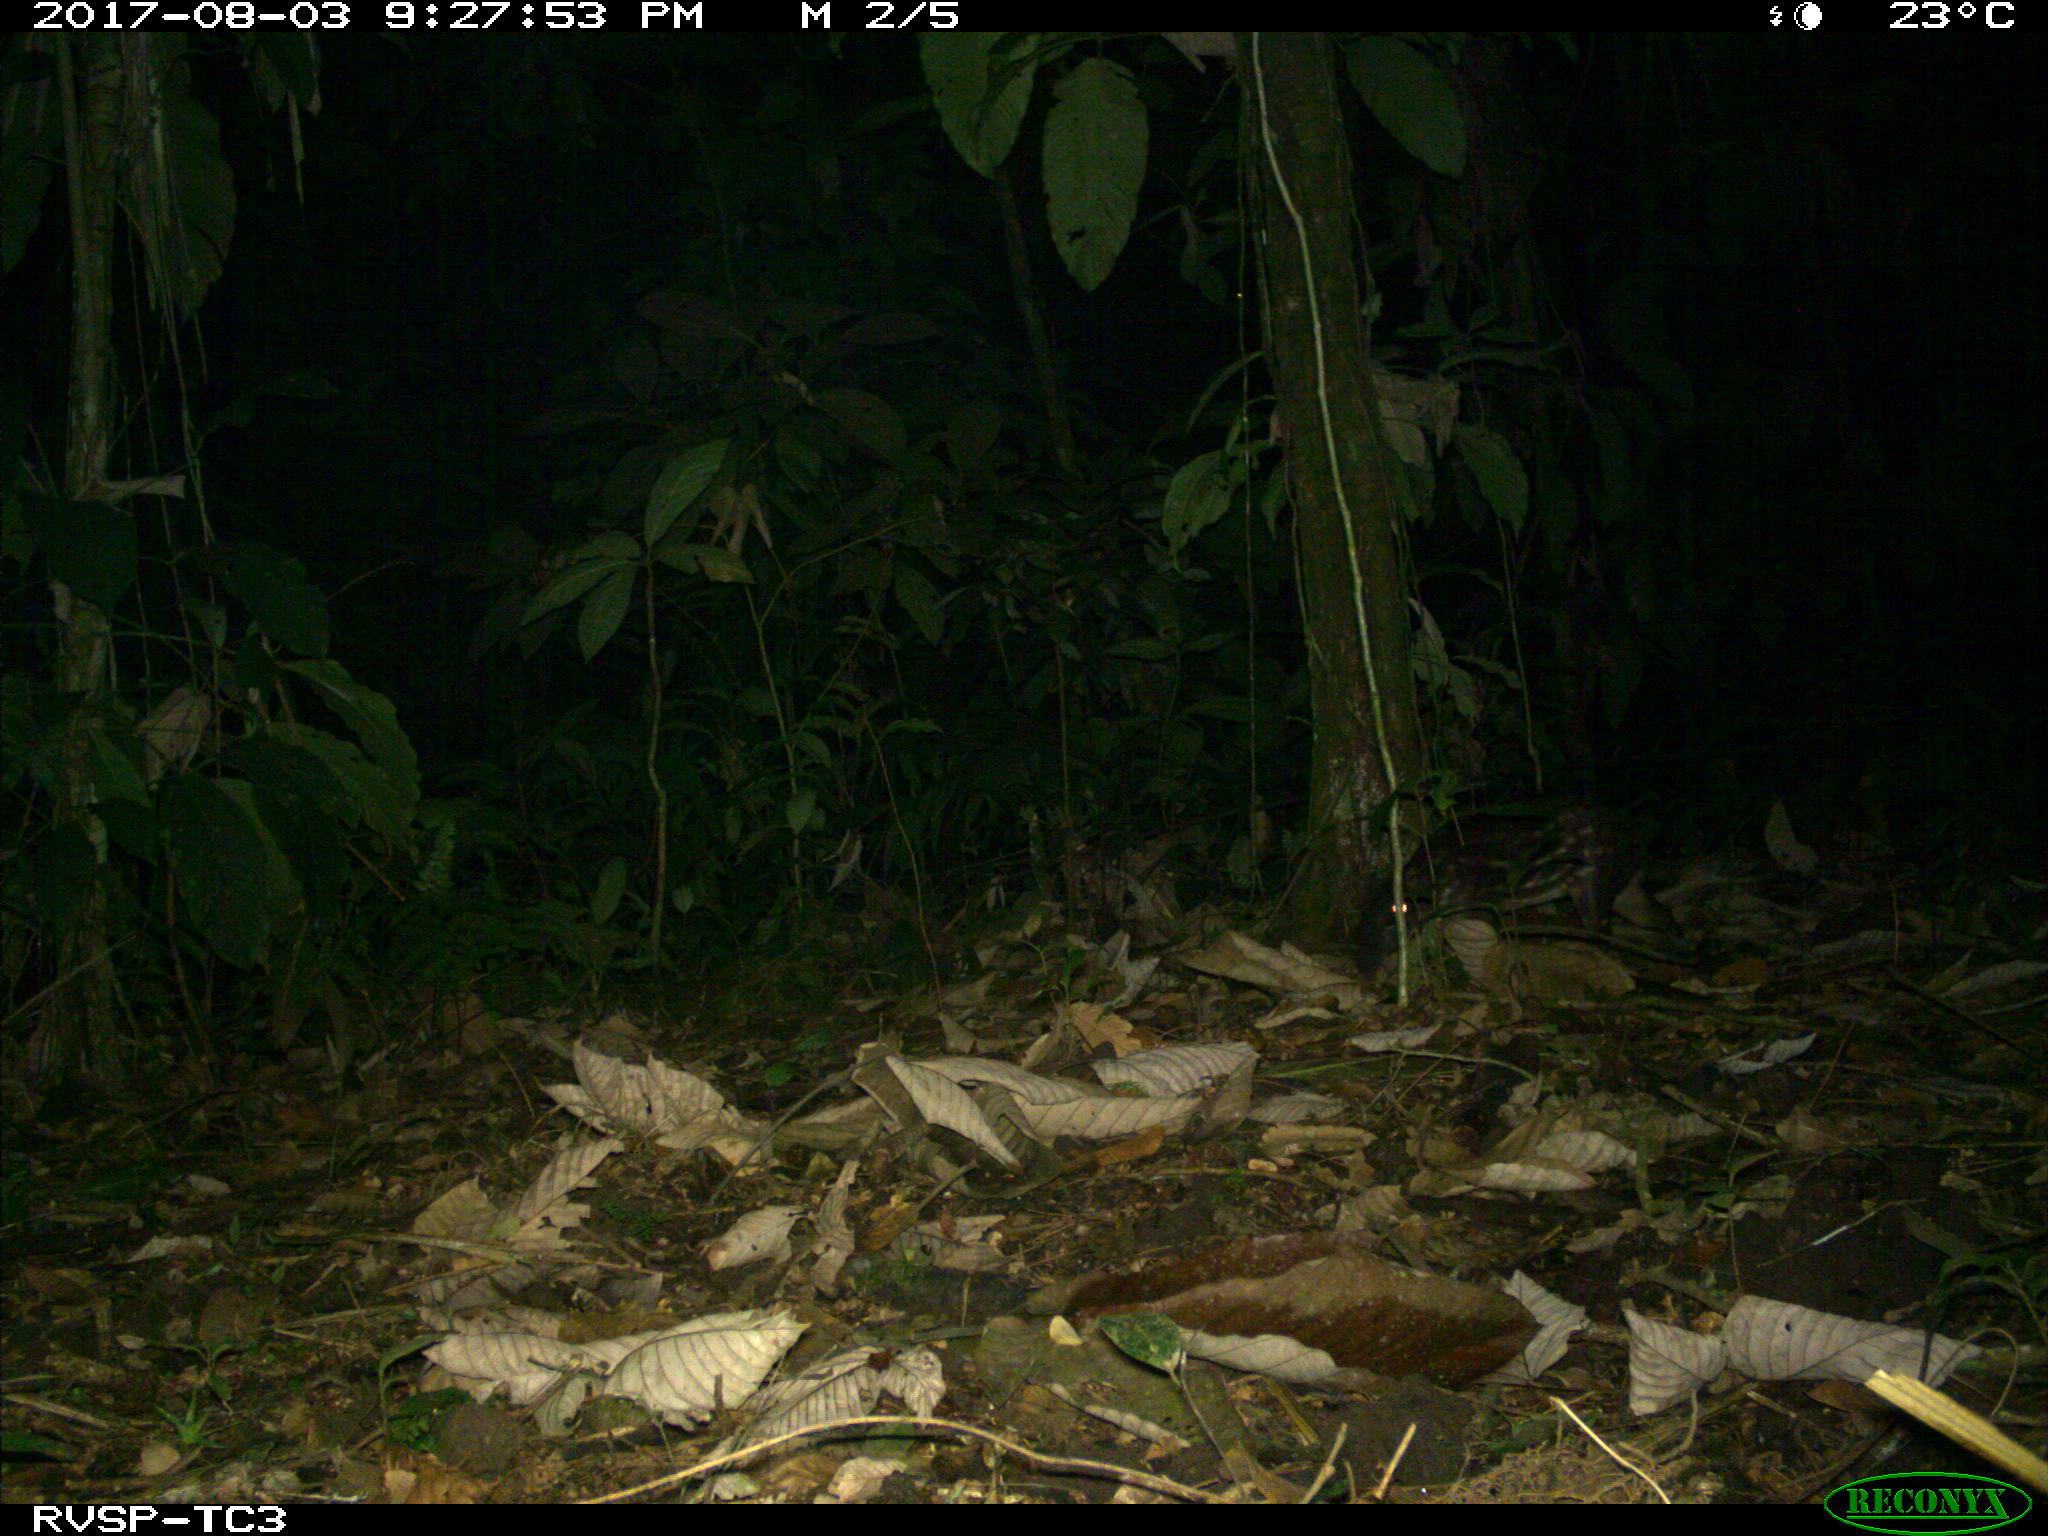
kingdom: Animalia
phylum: Chordata
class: Mammalia
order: Rodentia
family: Cuniculidae
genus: Cuniculus
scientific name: Cuniculus paca
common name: Lowland paca
